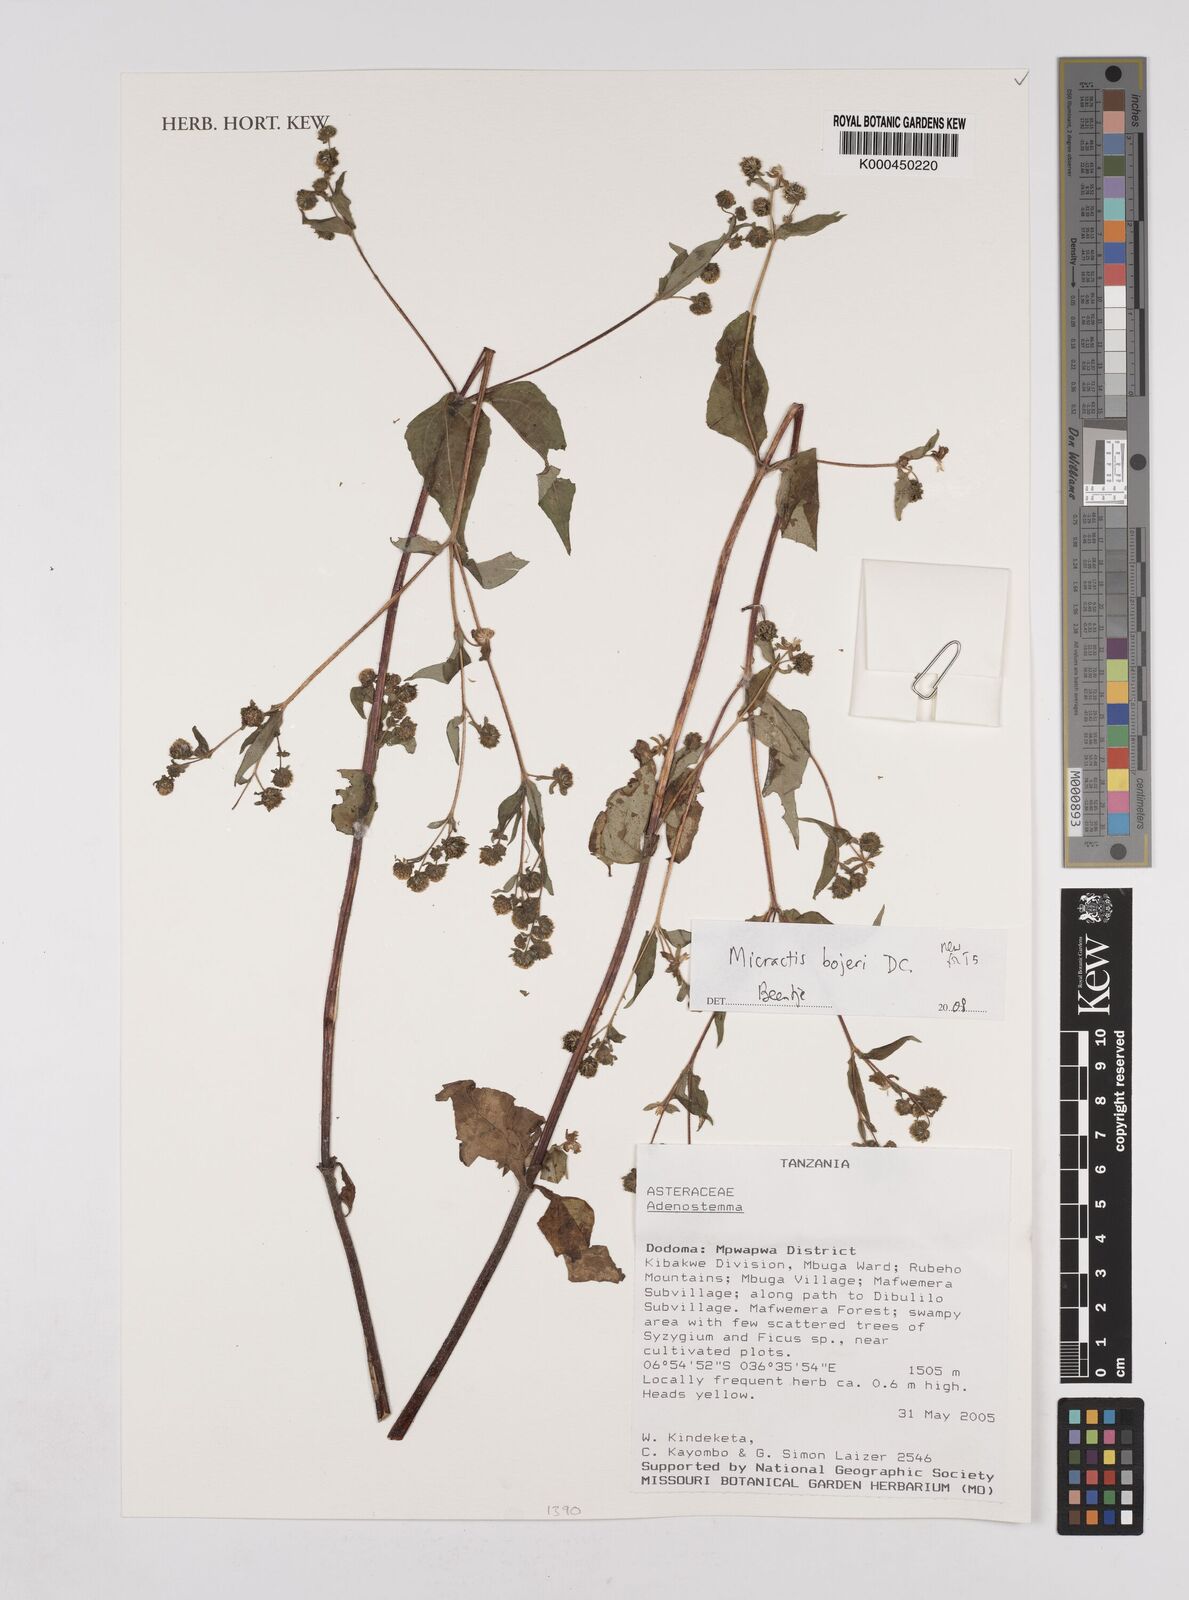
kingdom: Plantae
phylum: Tracheophyta
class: Magnoliopsida
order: Asterales
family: Asteraceae
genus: Micractis
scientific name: Micractis bojeri
